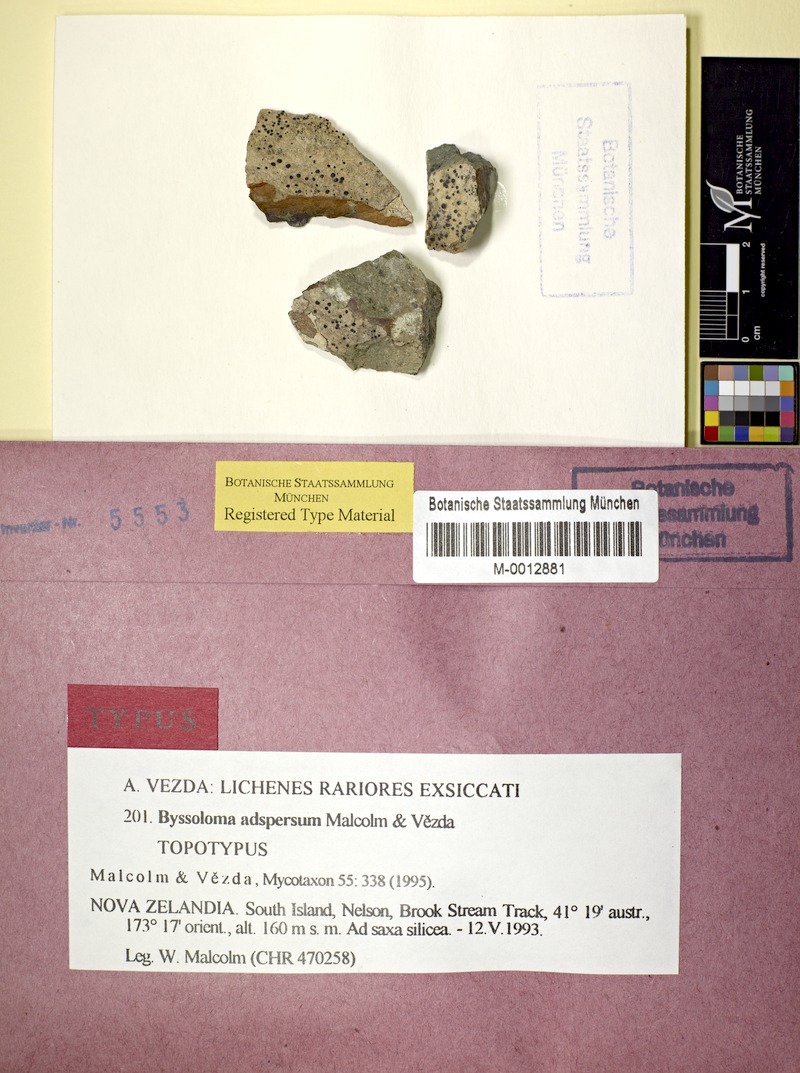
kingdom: Fungi
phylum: Ascomycota
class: Lecanoromycetes
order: Lecanorales
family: Byssolomataceae
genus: Byssoloma
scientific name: Byssoloma
